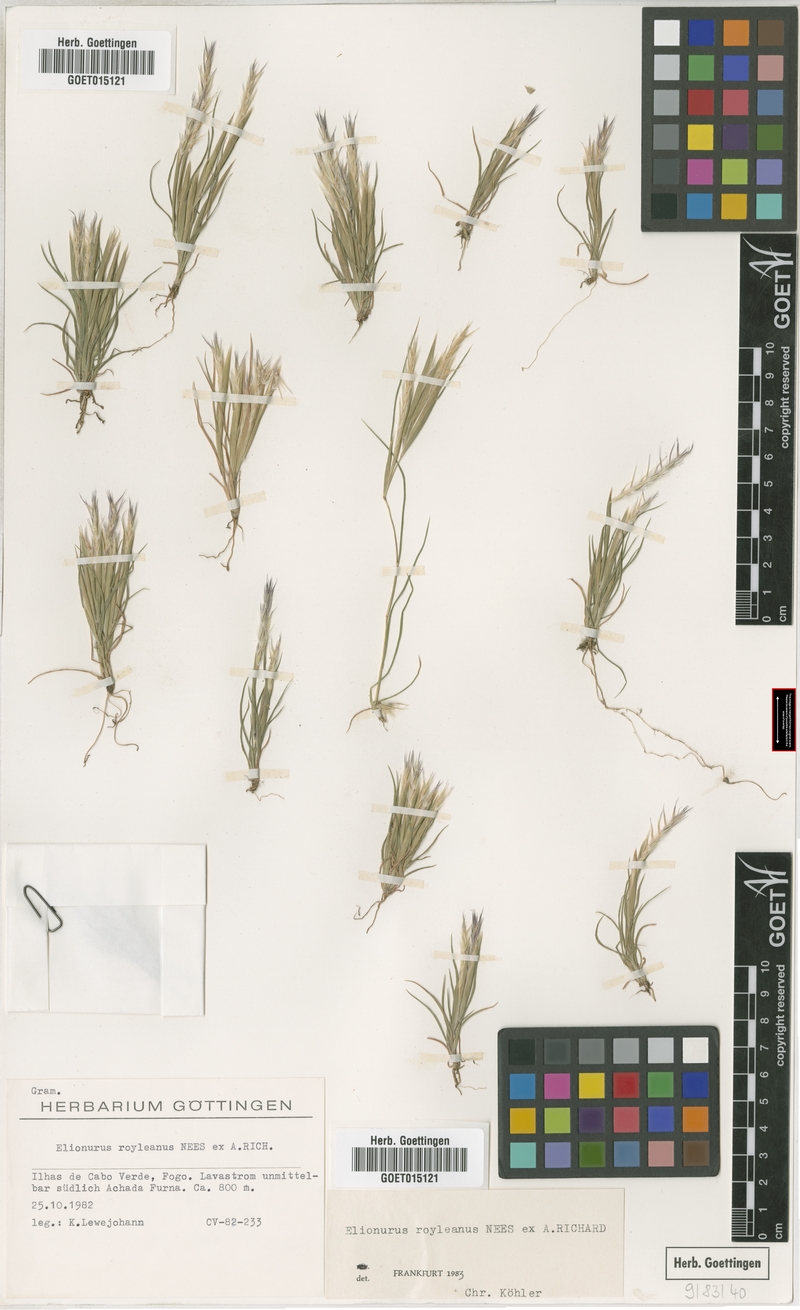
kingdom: Plantae
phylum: Tracheophyta
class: Liliopsida
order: Poales
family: Poaceae
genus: Elionurus
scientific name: Elionurus royleanus
